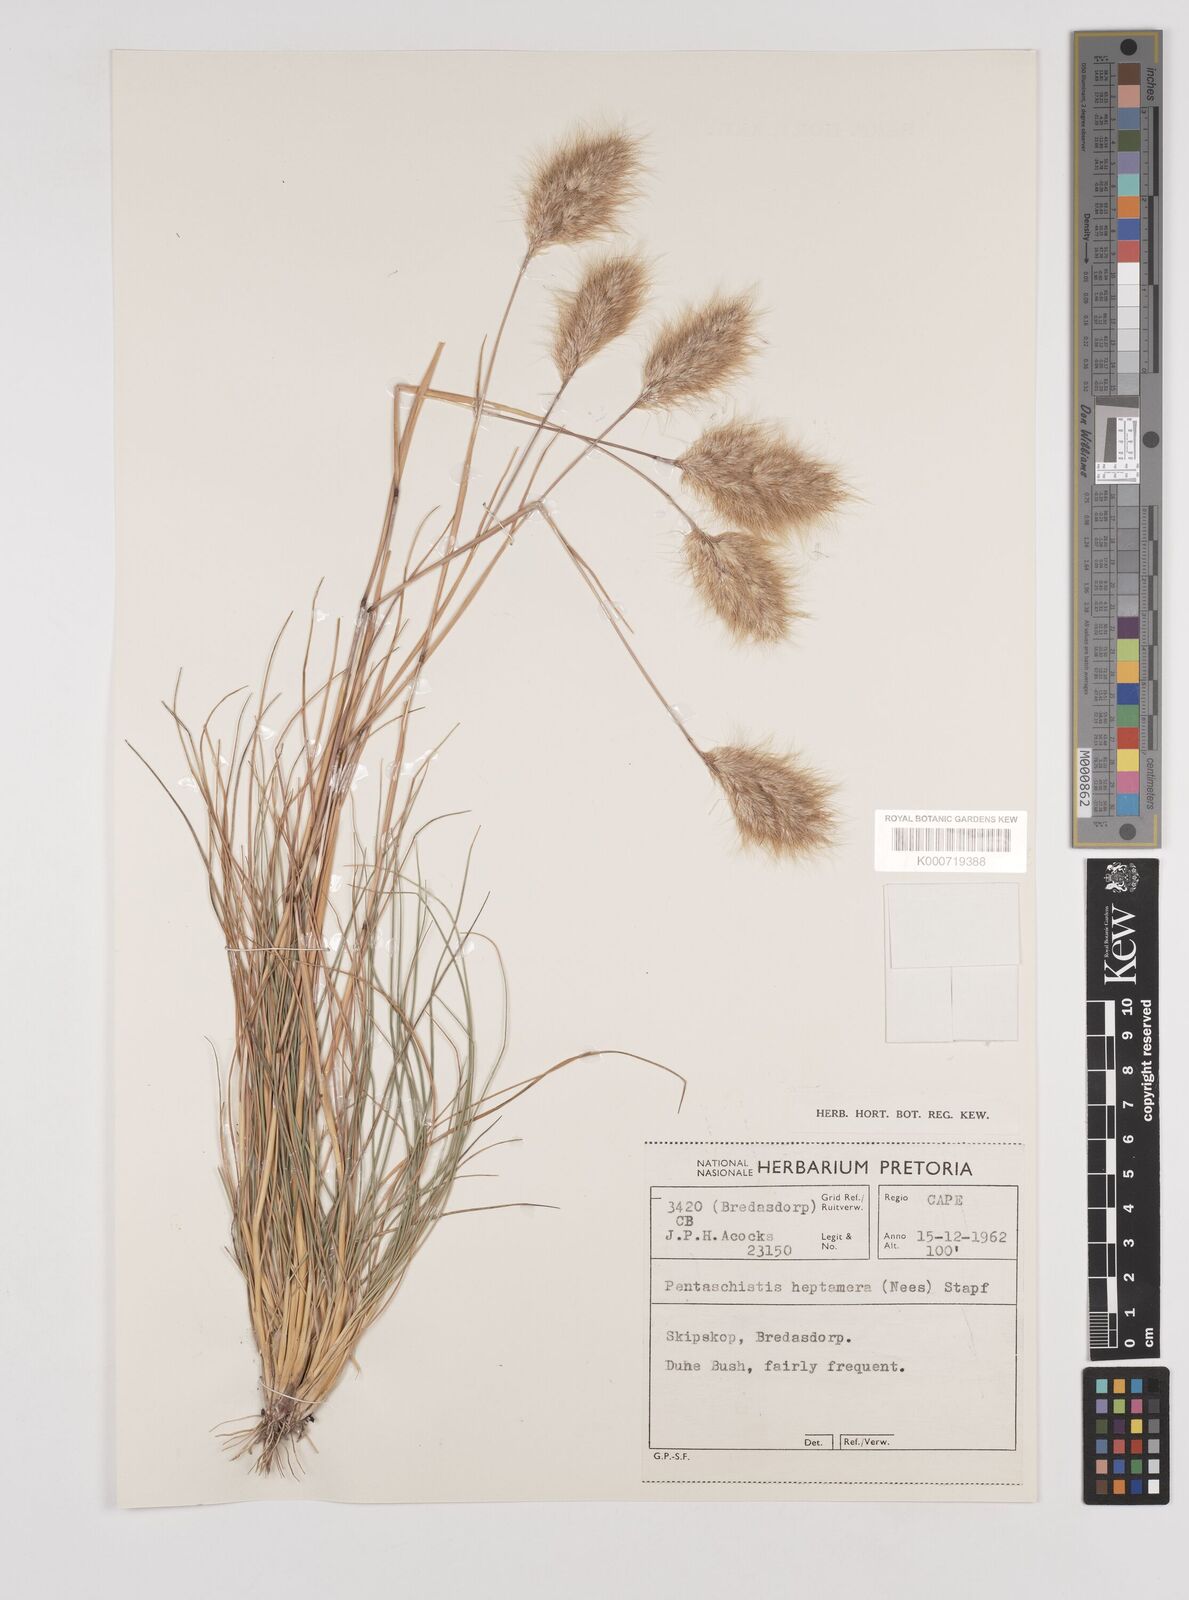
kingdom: Plantae
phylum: Tracheophyta
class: Liliopsida
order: Poales
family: Poaceae
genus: Pentameris
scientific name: Pentameris triseta
